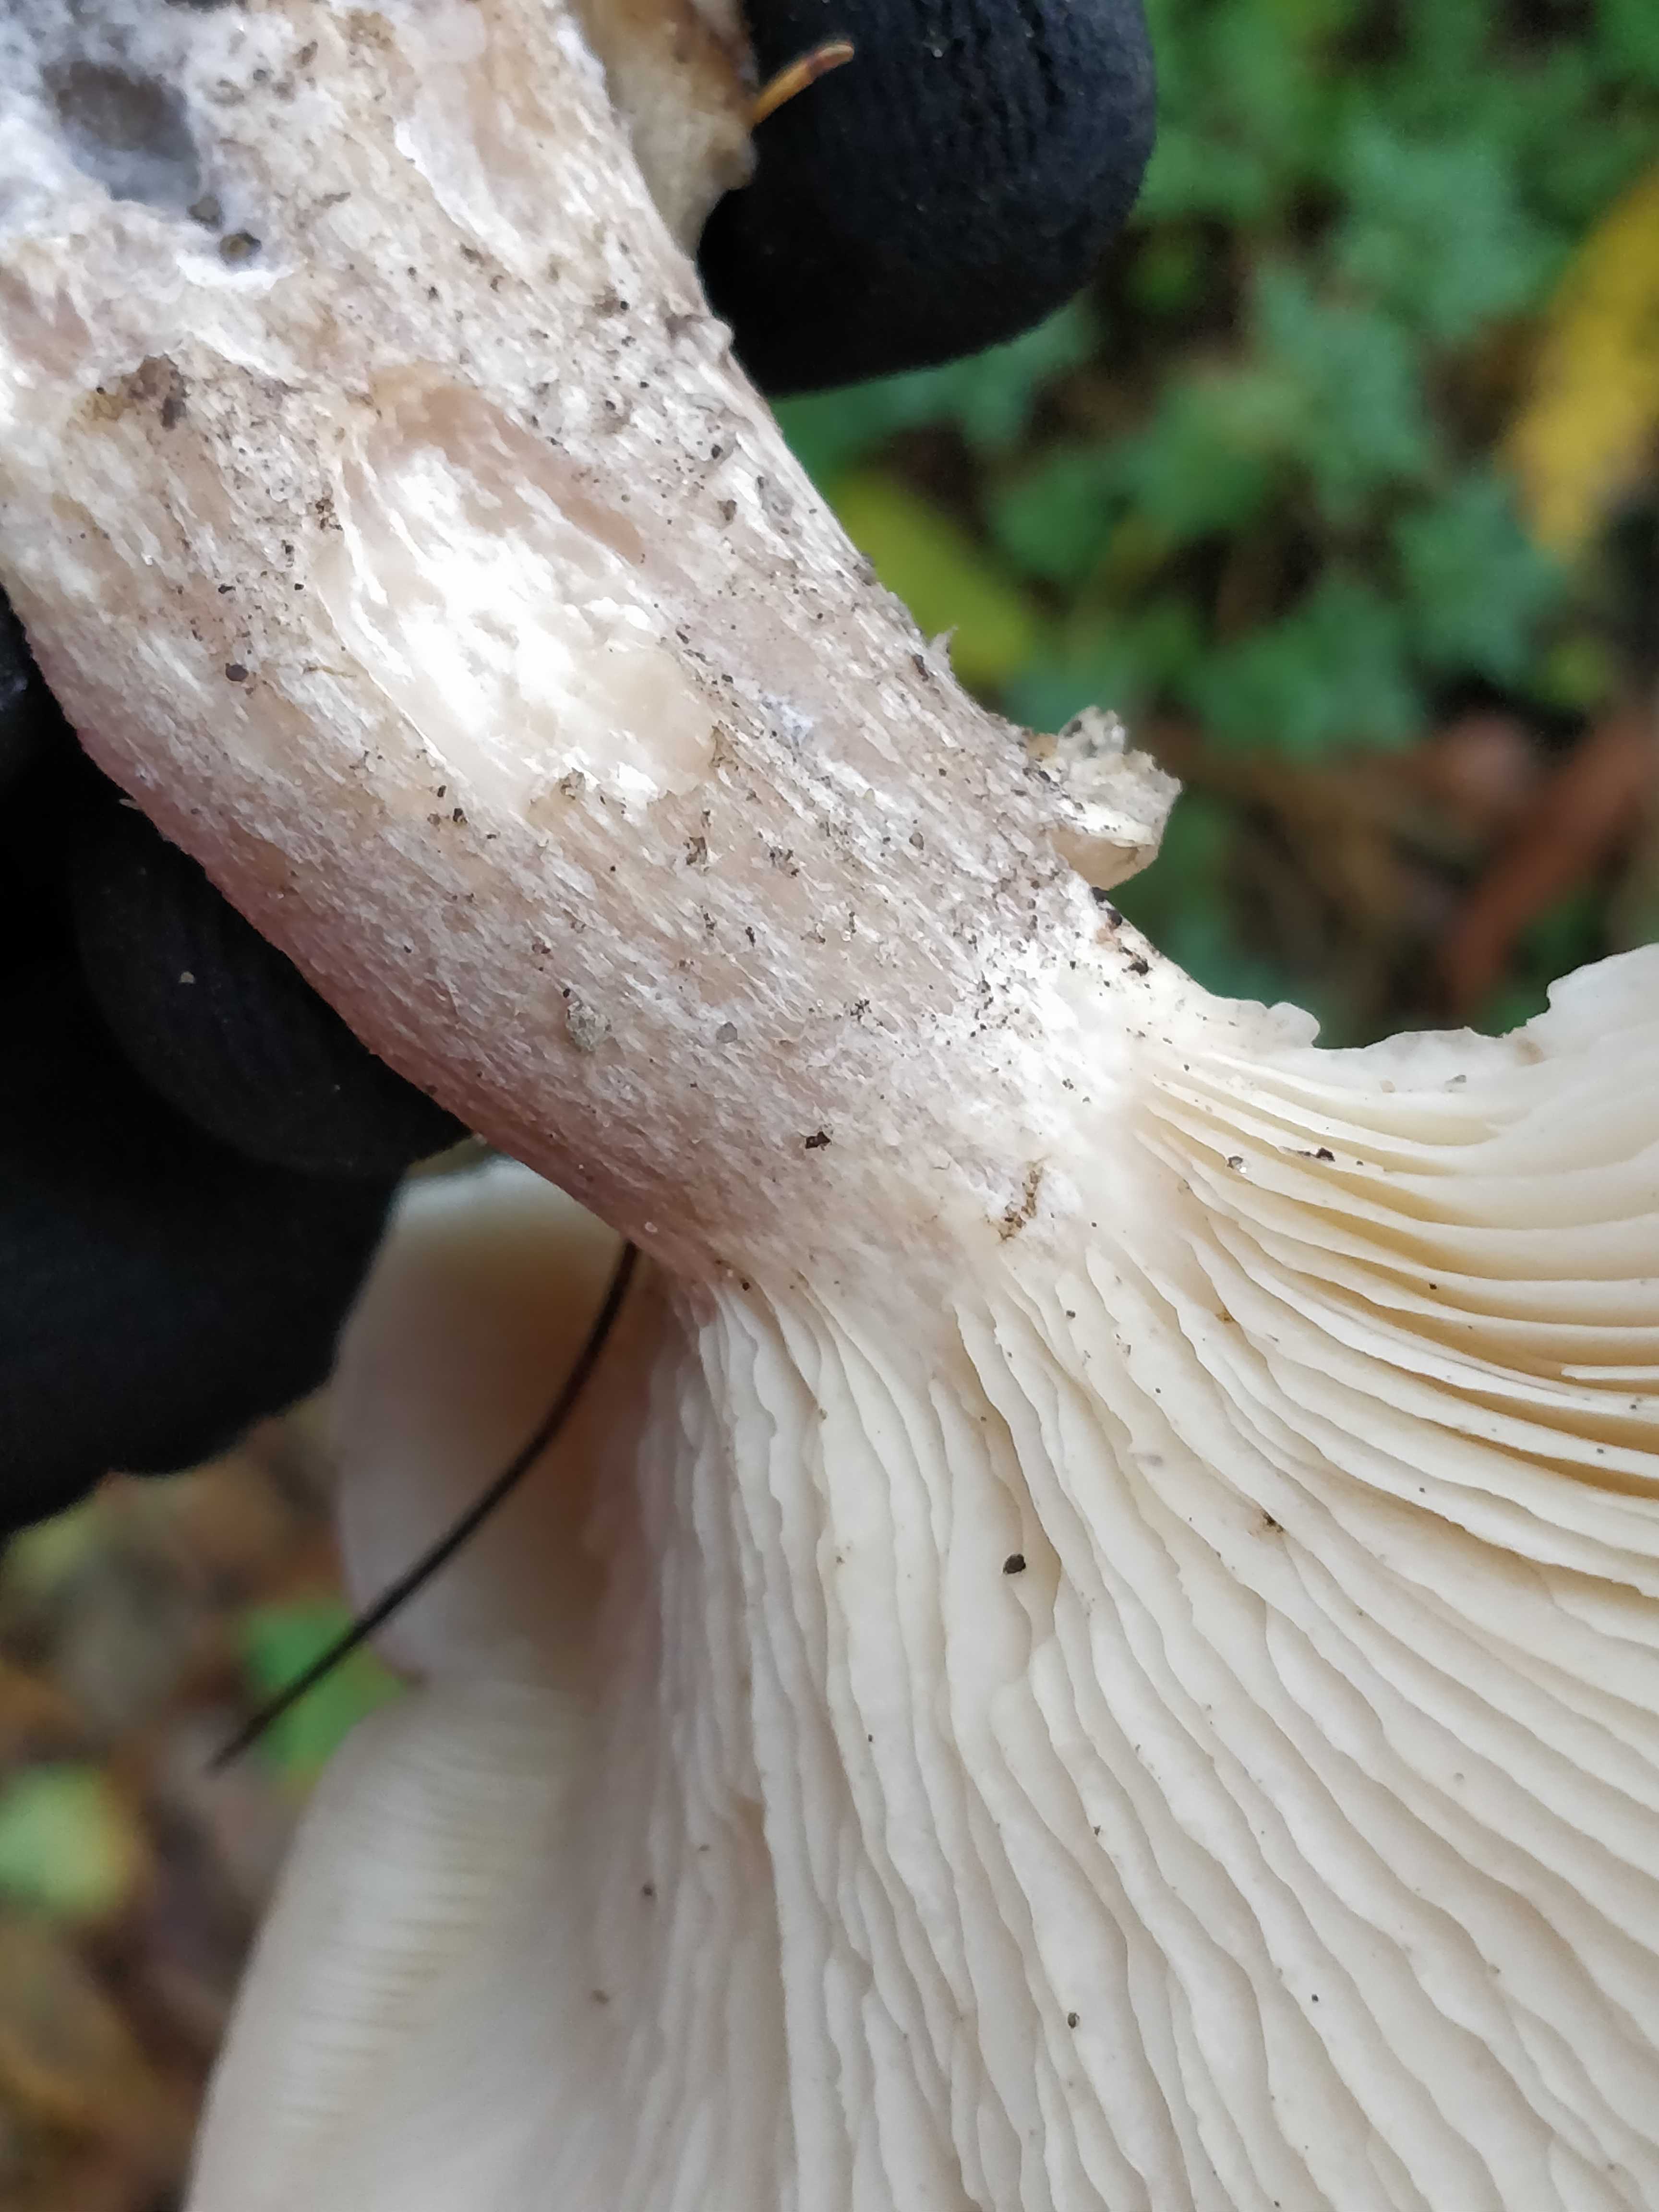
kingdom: Fungi
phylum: Basidiomycota
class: Agaricomycetes
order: Agaricales
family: Tricholomataceae
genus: Clitocybe
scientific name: Clitocybe nebularis
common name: tåge-tragthat
